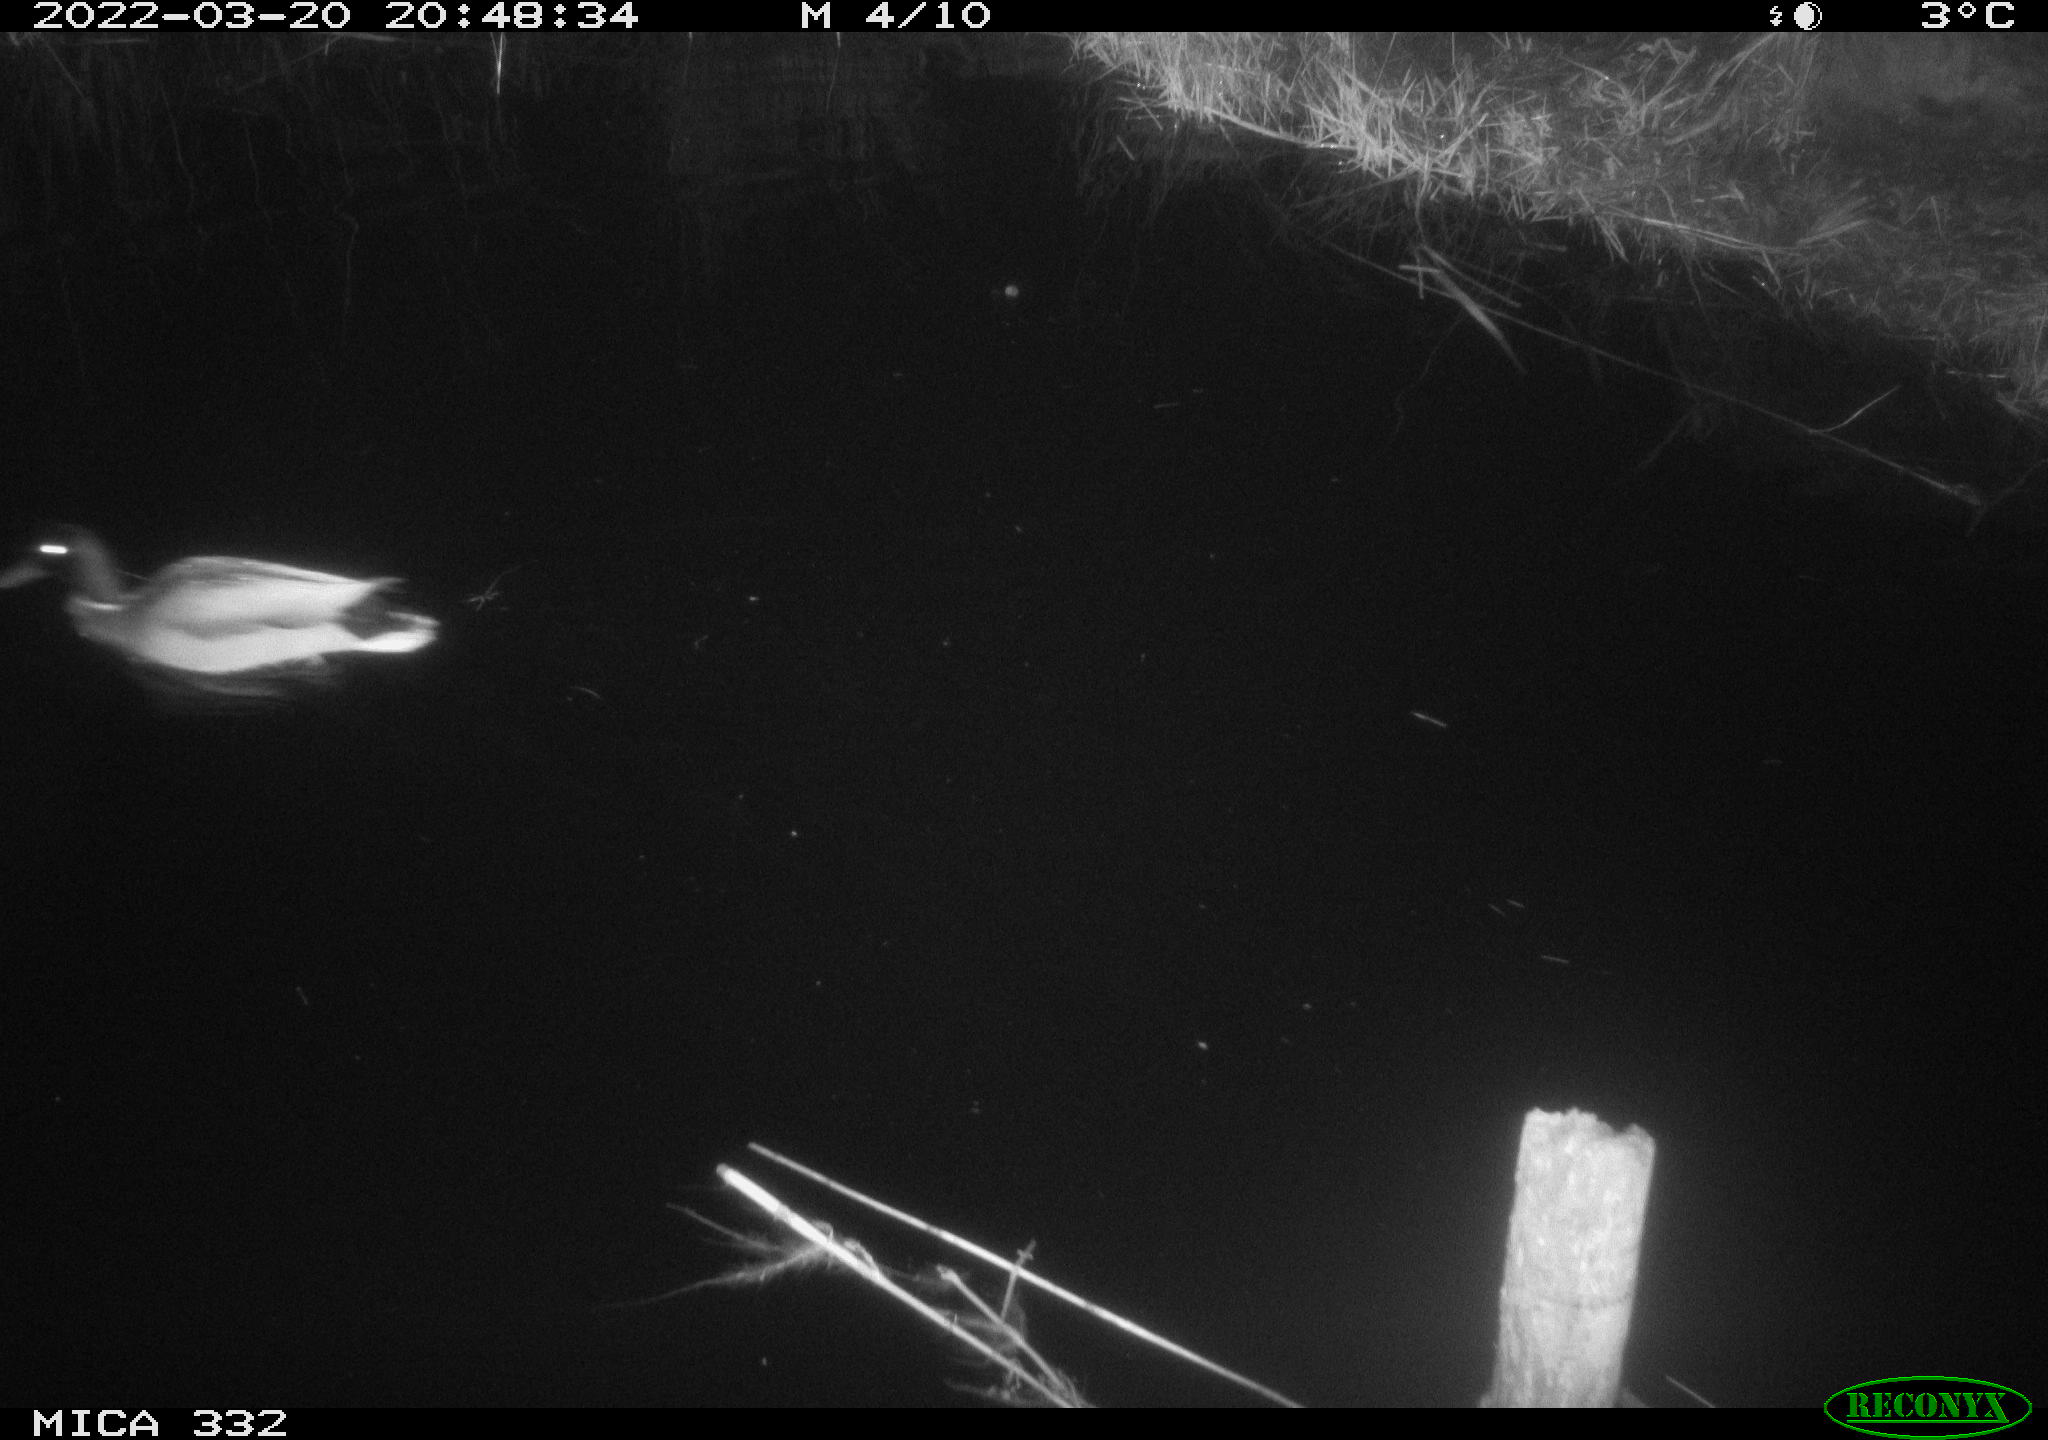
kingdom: Animalia
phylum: Chordata
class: Aves
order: Anseriformes
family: Anatidae
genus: Anas
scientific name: Anas platyrhynchos
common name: Mallard
